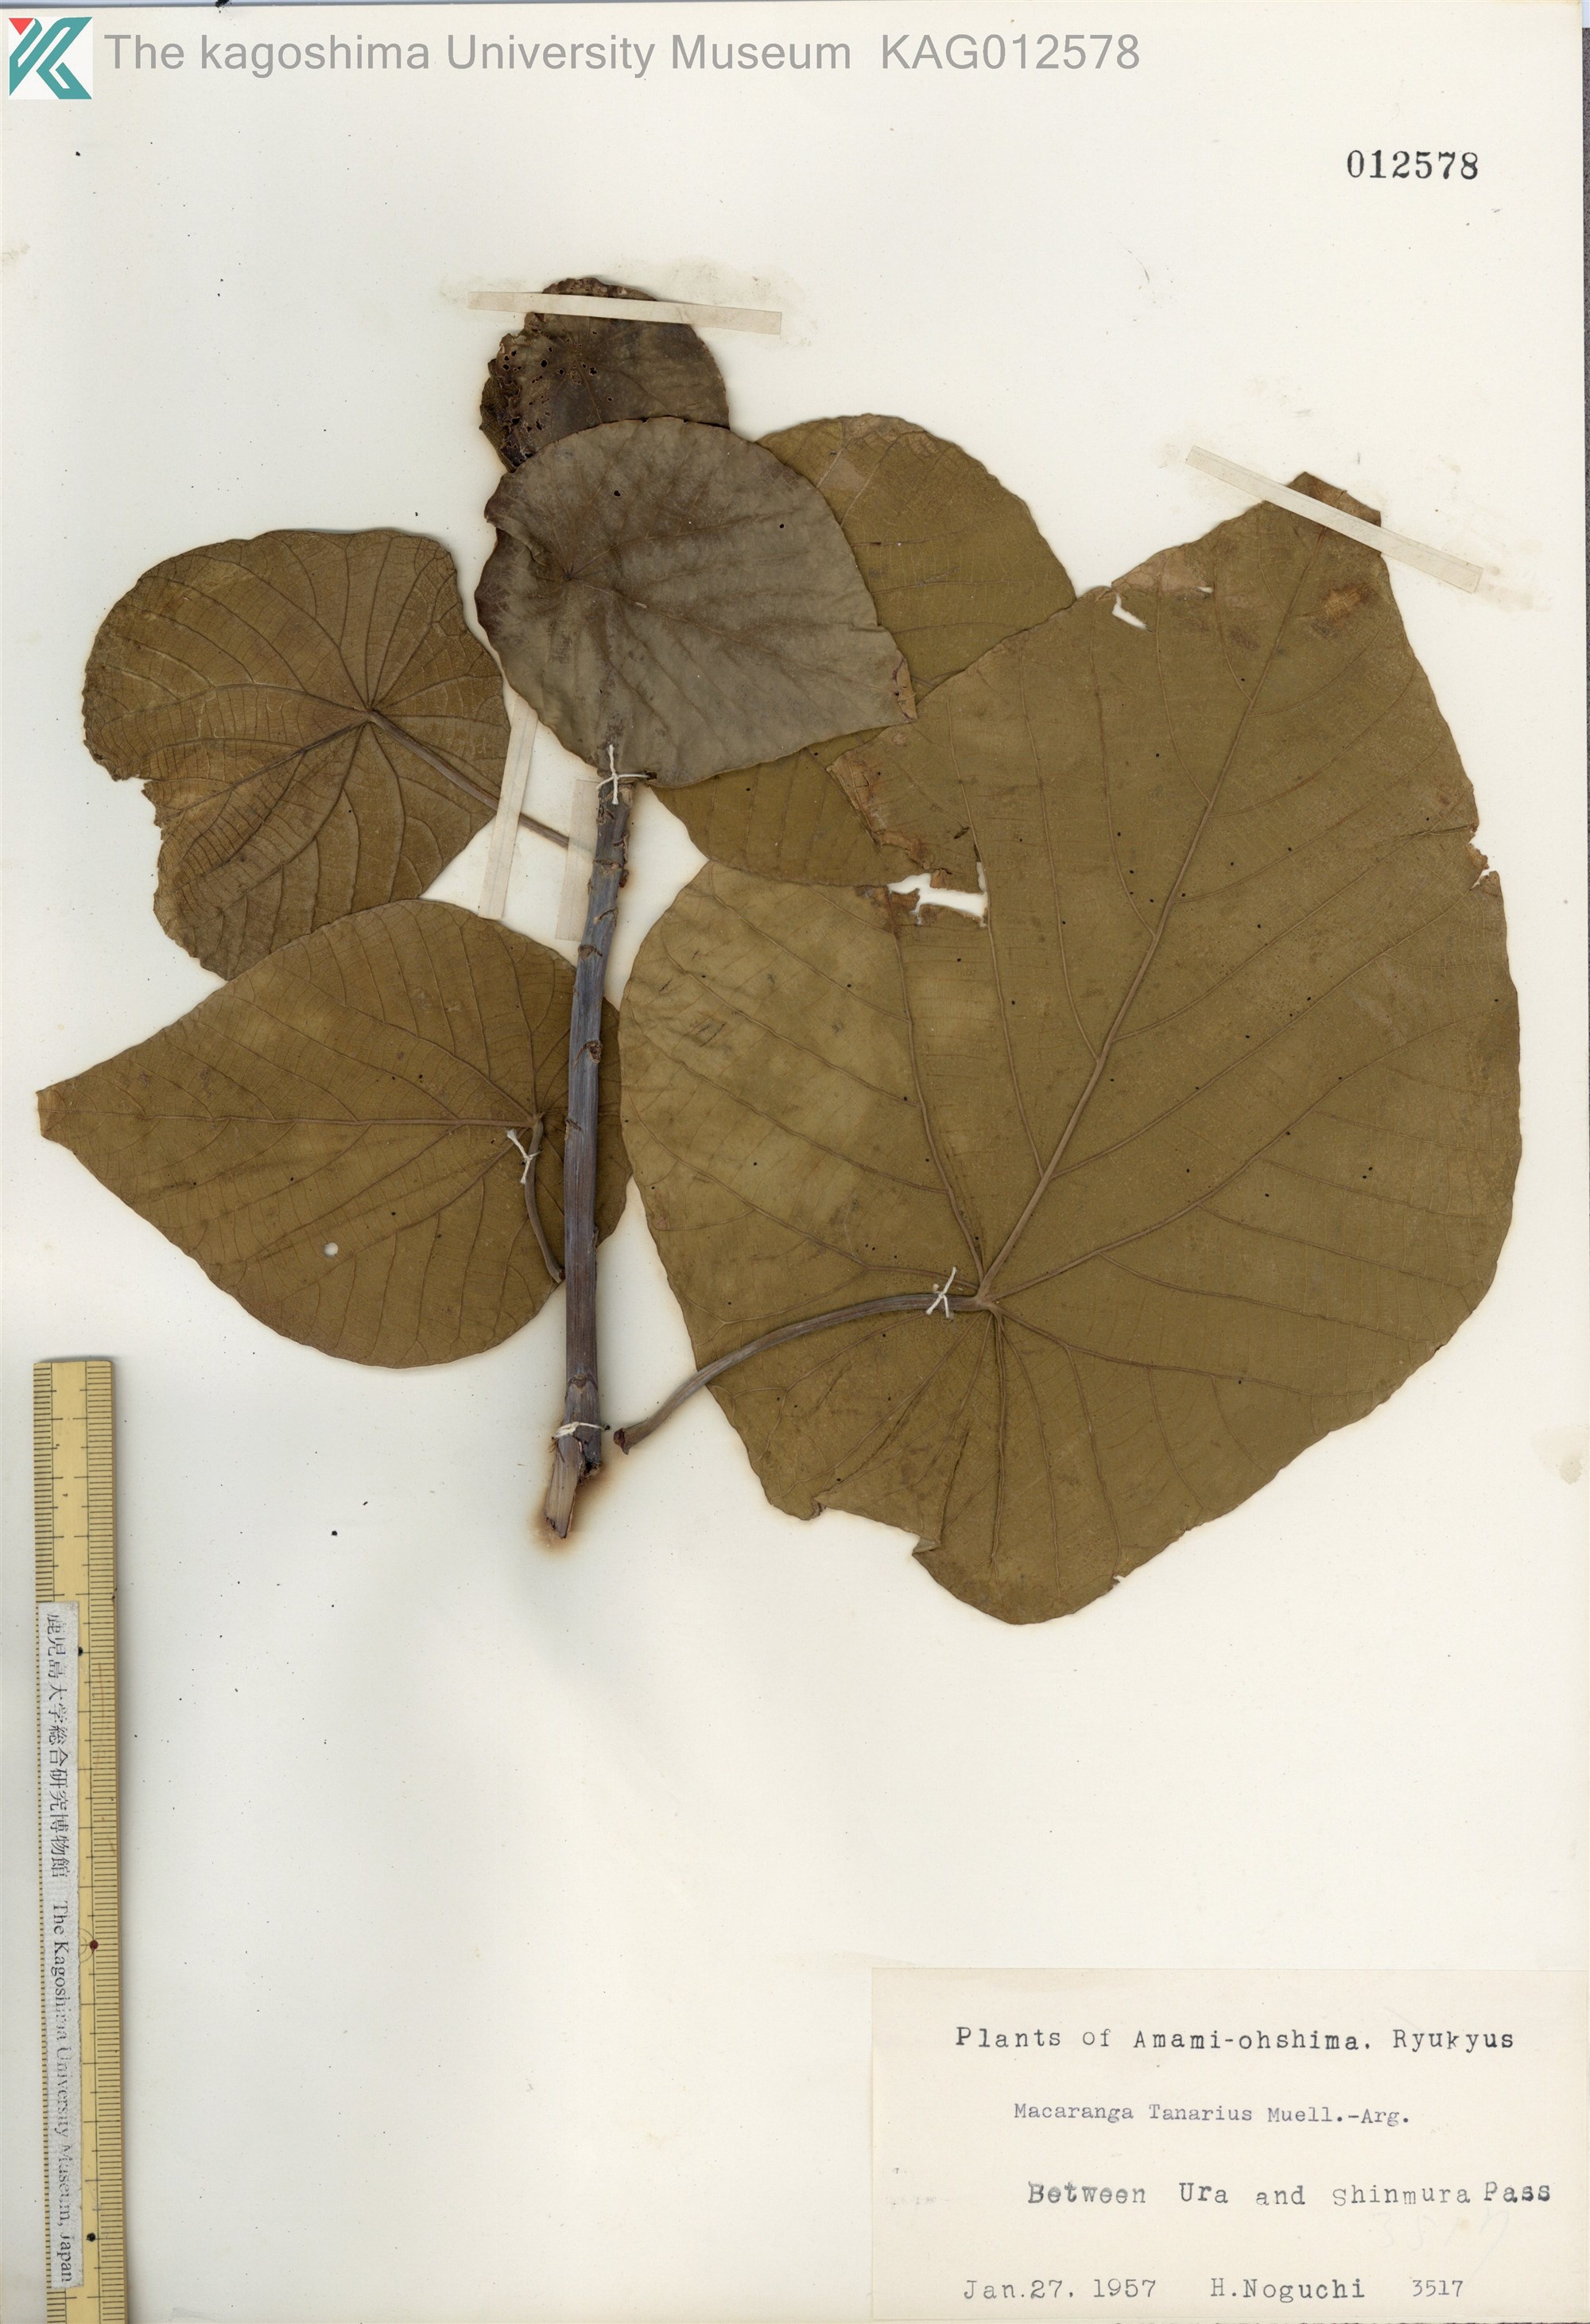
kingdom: Plantae
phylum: Tracheophyta
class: Magnoliopsida
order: Malpighiales
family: Euphorbiaceae
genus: Macaranga
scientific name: Macaranga tanarius
